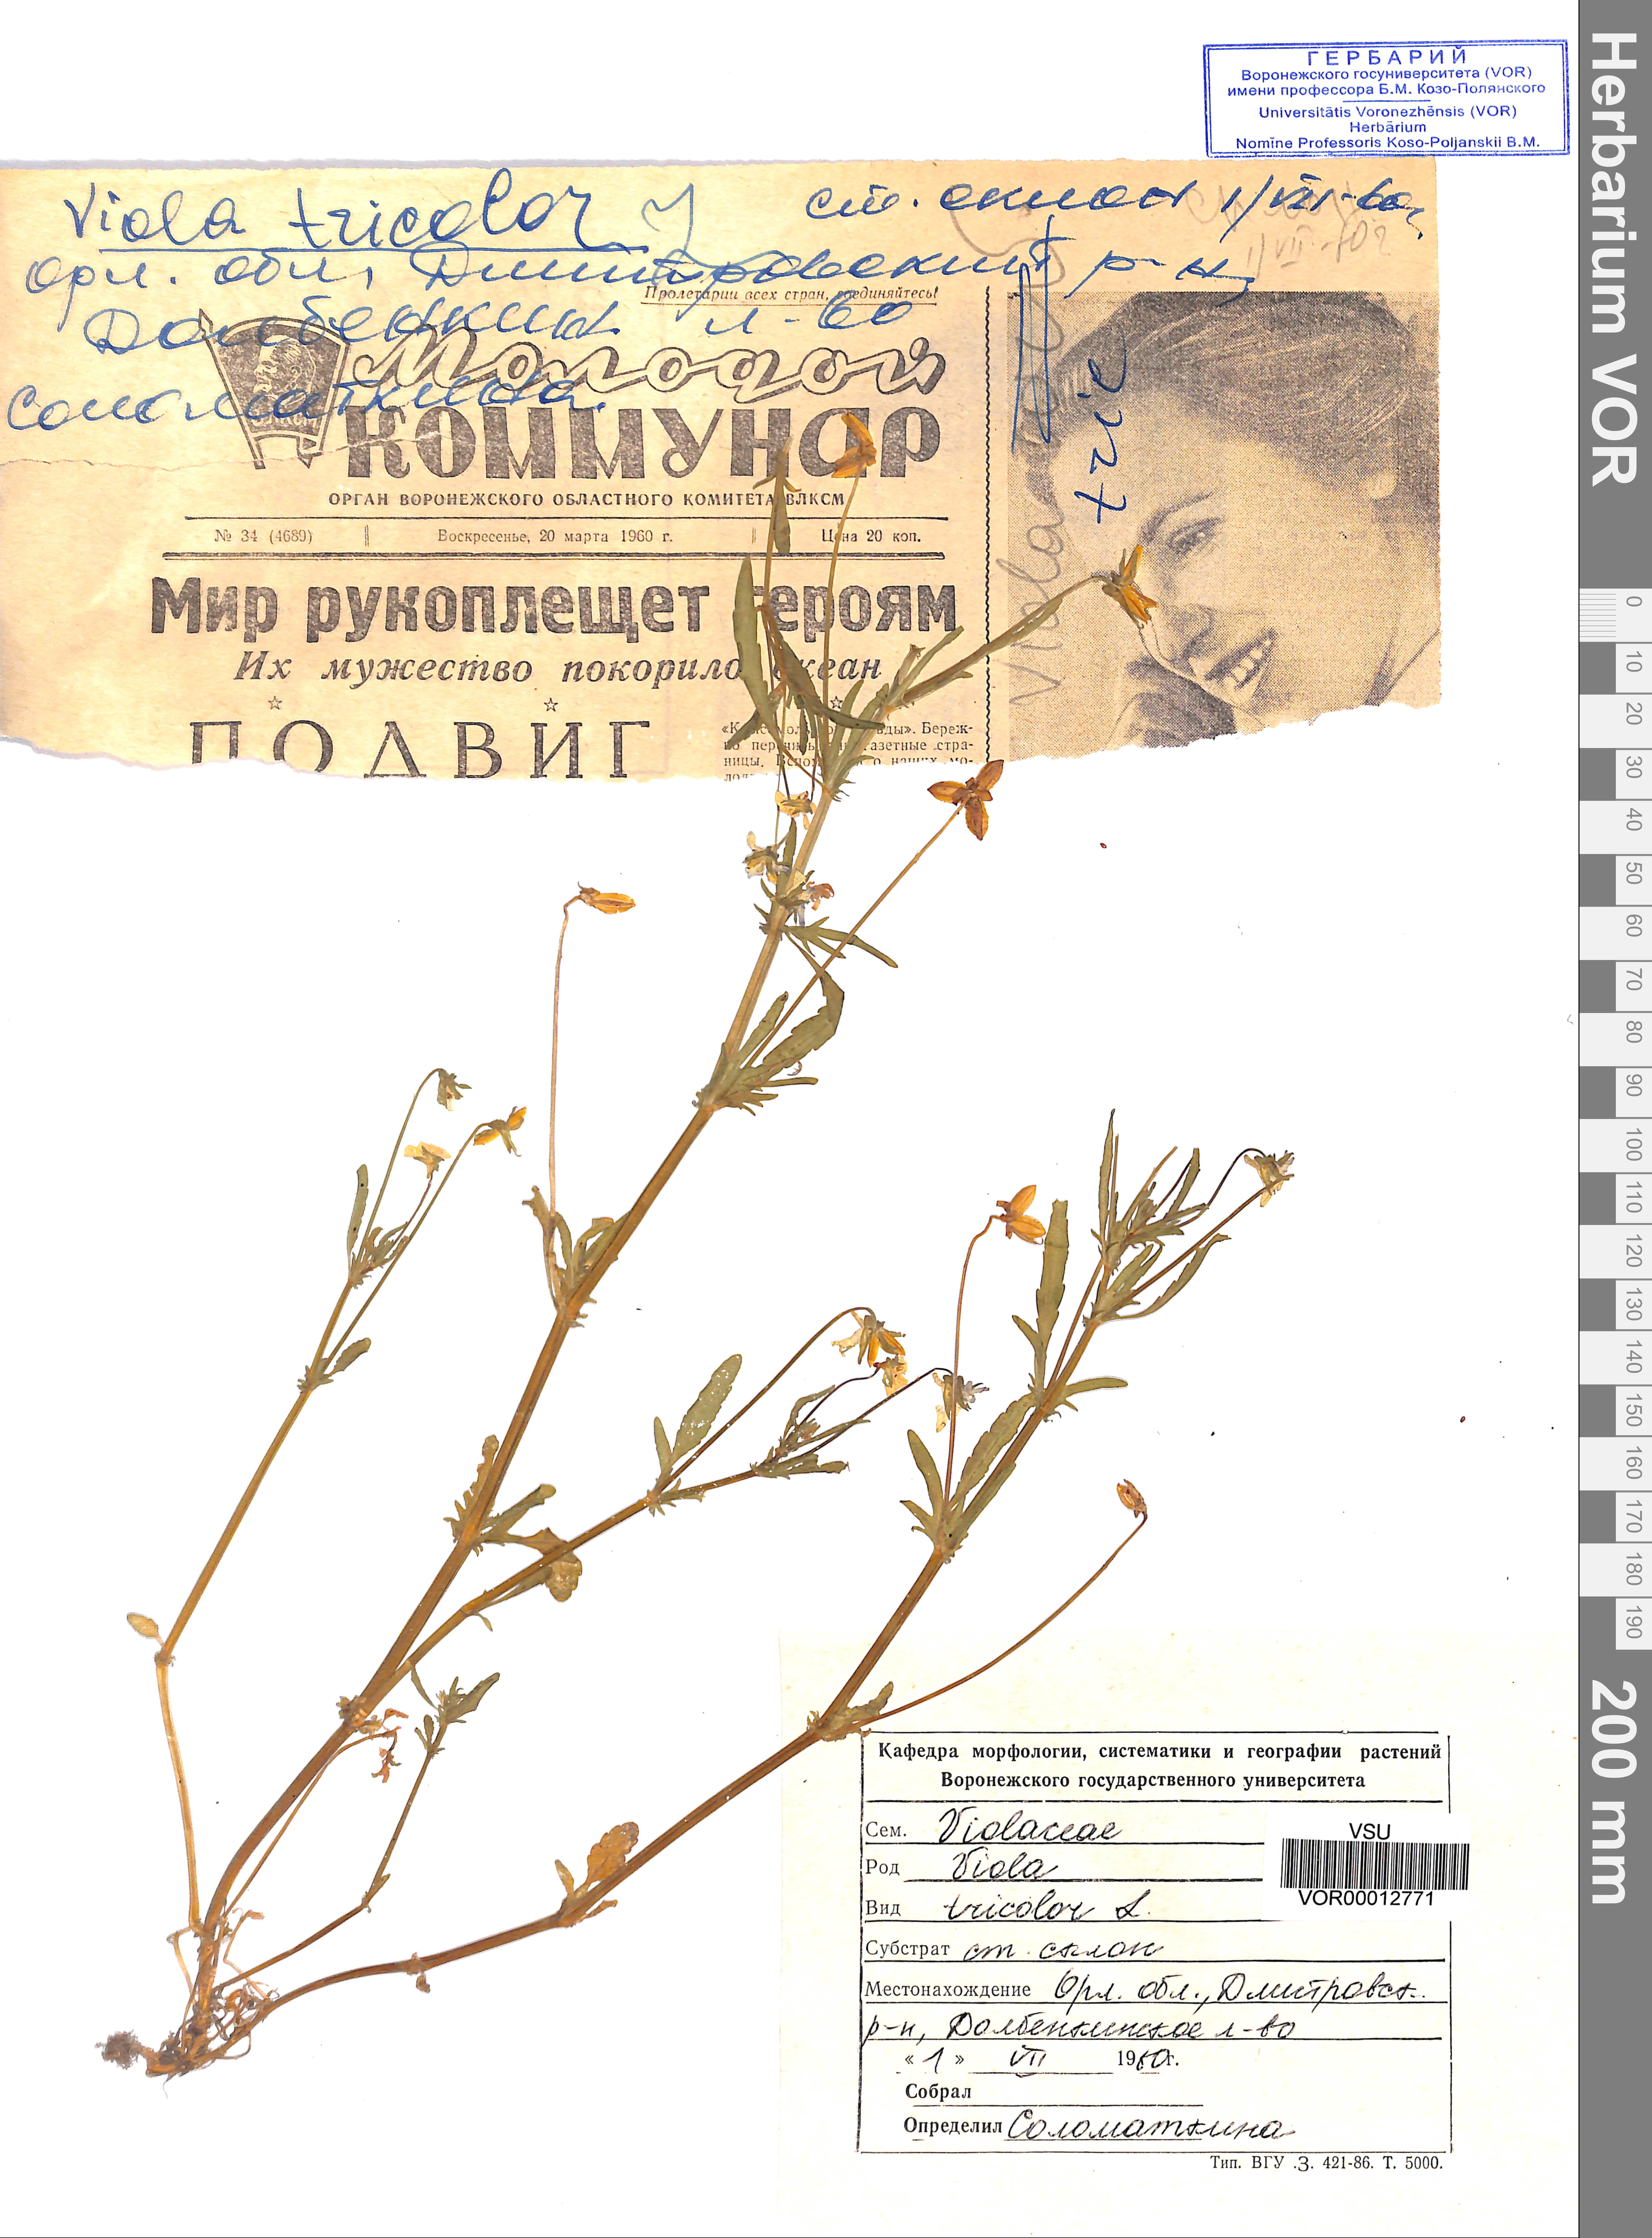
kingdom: Plantae
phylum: Tracheophyta
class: Magnoliopsida
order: Malpighiales
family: Violaceae
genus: Viola
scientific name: Viola tricolor
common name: Pansy
